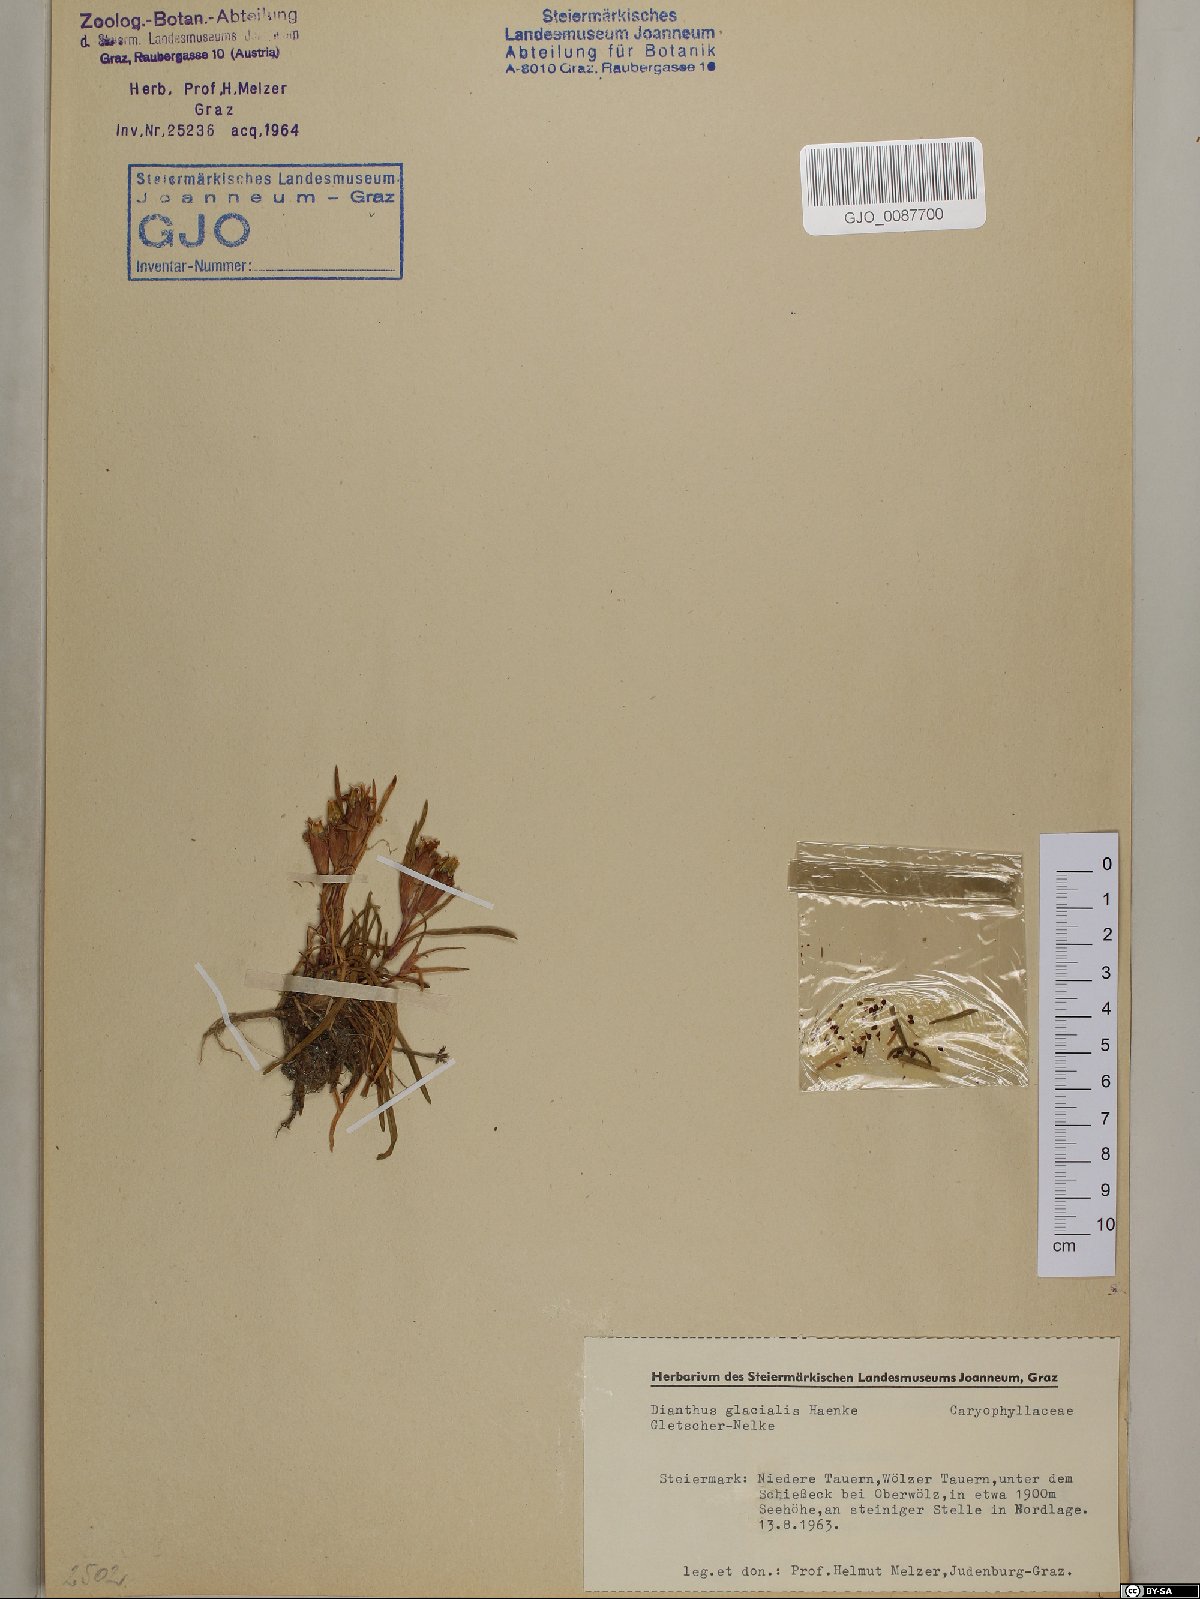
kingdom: Plantae
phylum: Tracheophyta
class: Magnoliopsida
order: Caryophyllales
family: Caryophyllaceae
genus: Dianthus
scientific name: Dianthus glacialis
